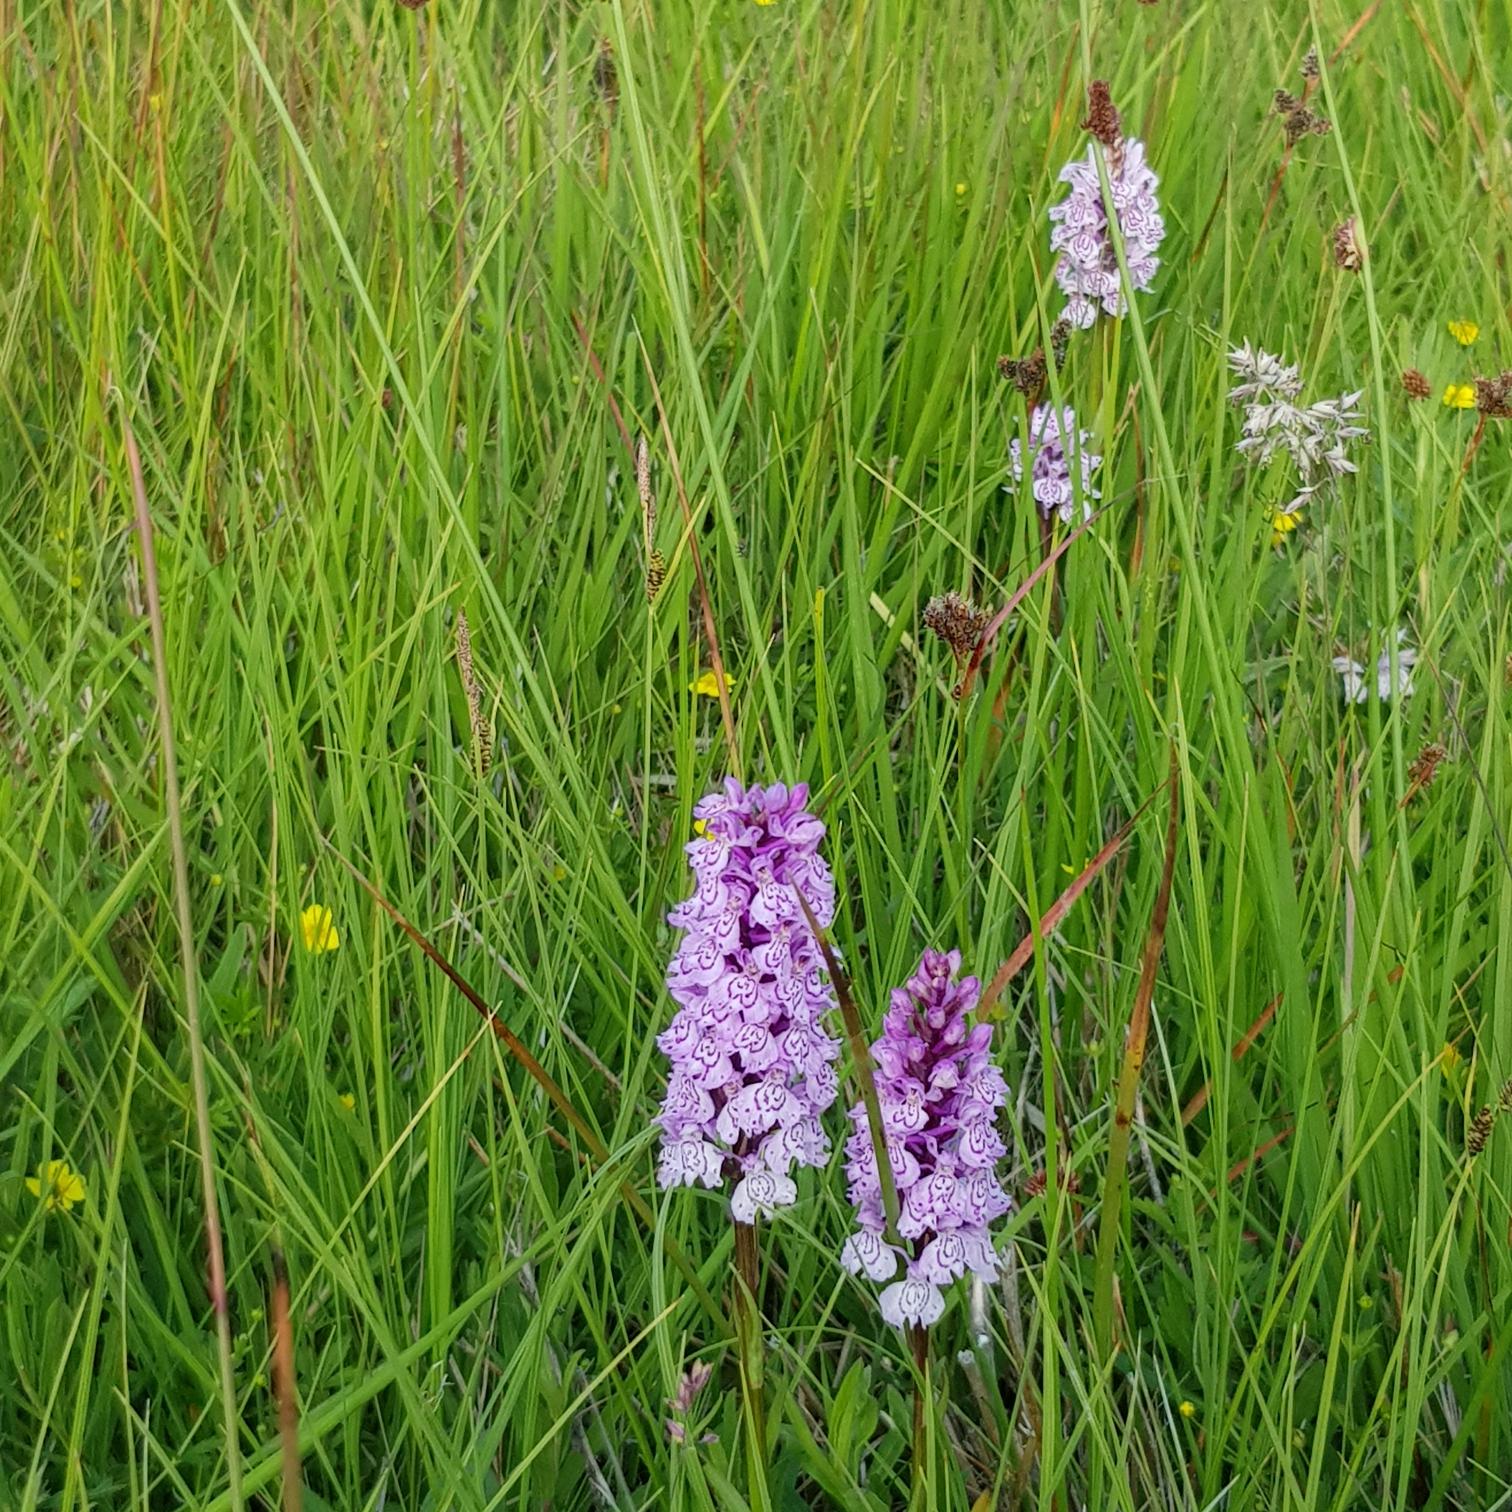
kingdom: Plantae
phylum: Tracheophyta
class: Liliopsida
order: Asparagales
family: Orchidaceae
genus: Dactylorhiza
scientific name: Dactylorhiza maculata
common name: Plettet gøgeurt
